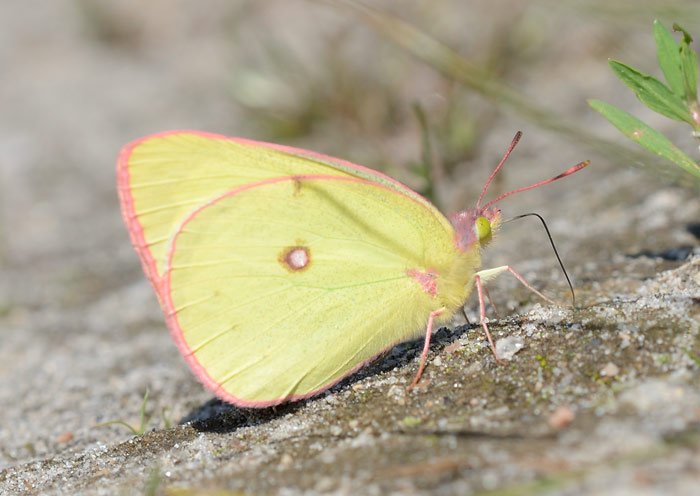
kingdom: Animalia
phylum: Arthropoda
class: Insecta
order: Lepidoptera
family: Pieridae
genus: Colias
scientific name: Colias interior
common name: Pink-edged Sulphur
